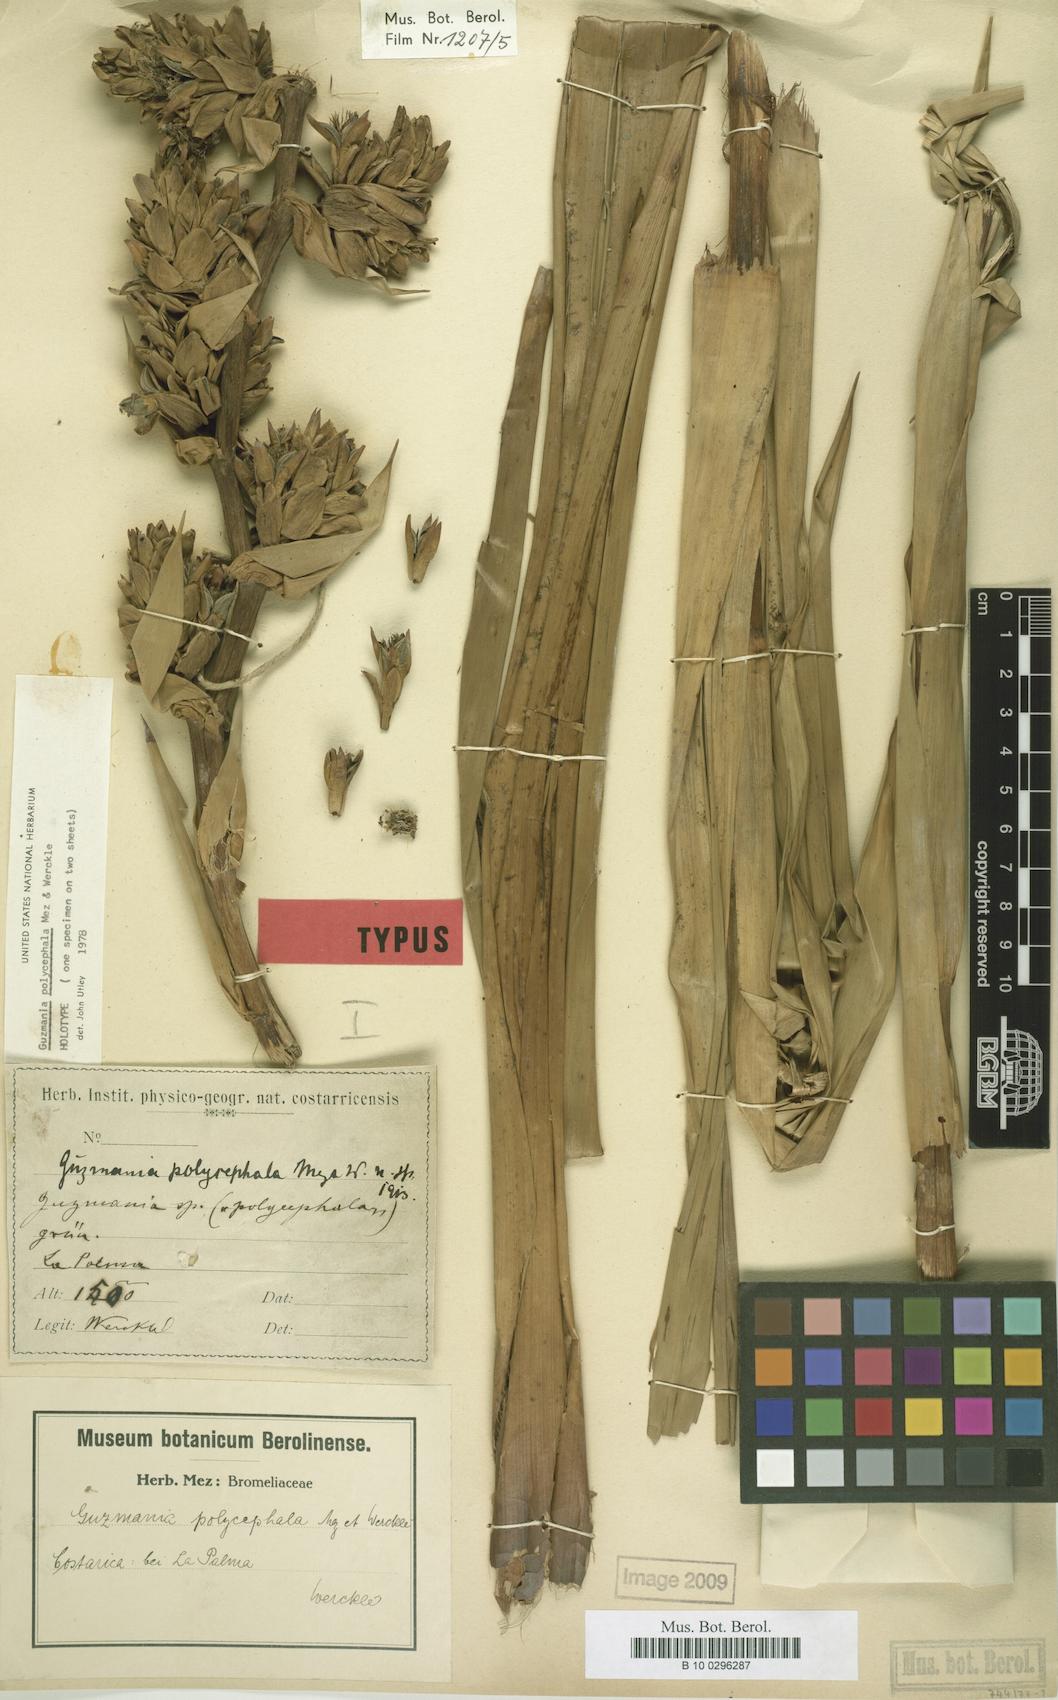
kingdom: Plantae
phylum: Tracheophyta
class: Liliopsida
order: Poales
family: Bromeliaceae
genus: Guzmania
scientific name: Guzmania polycephala
